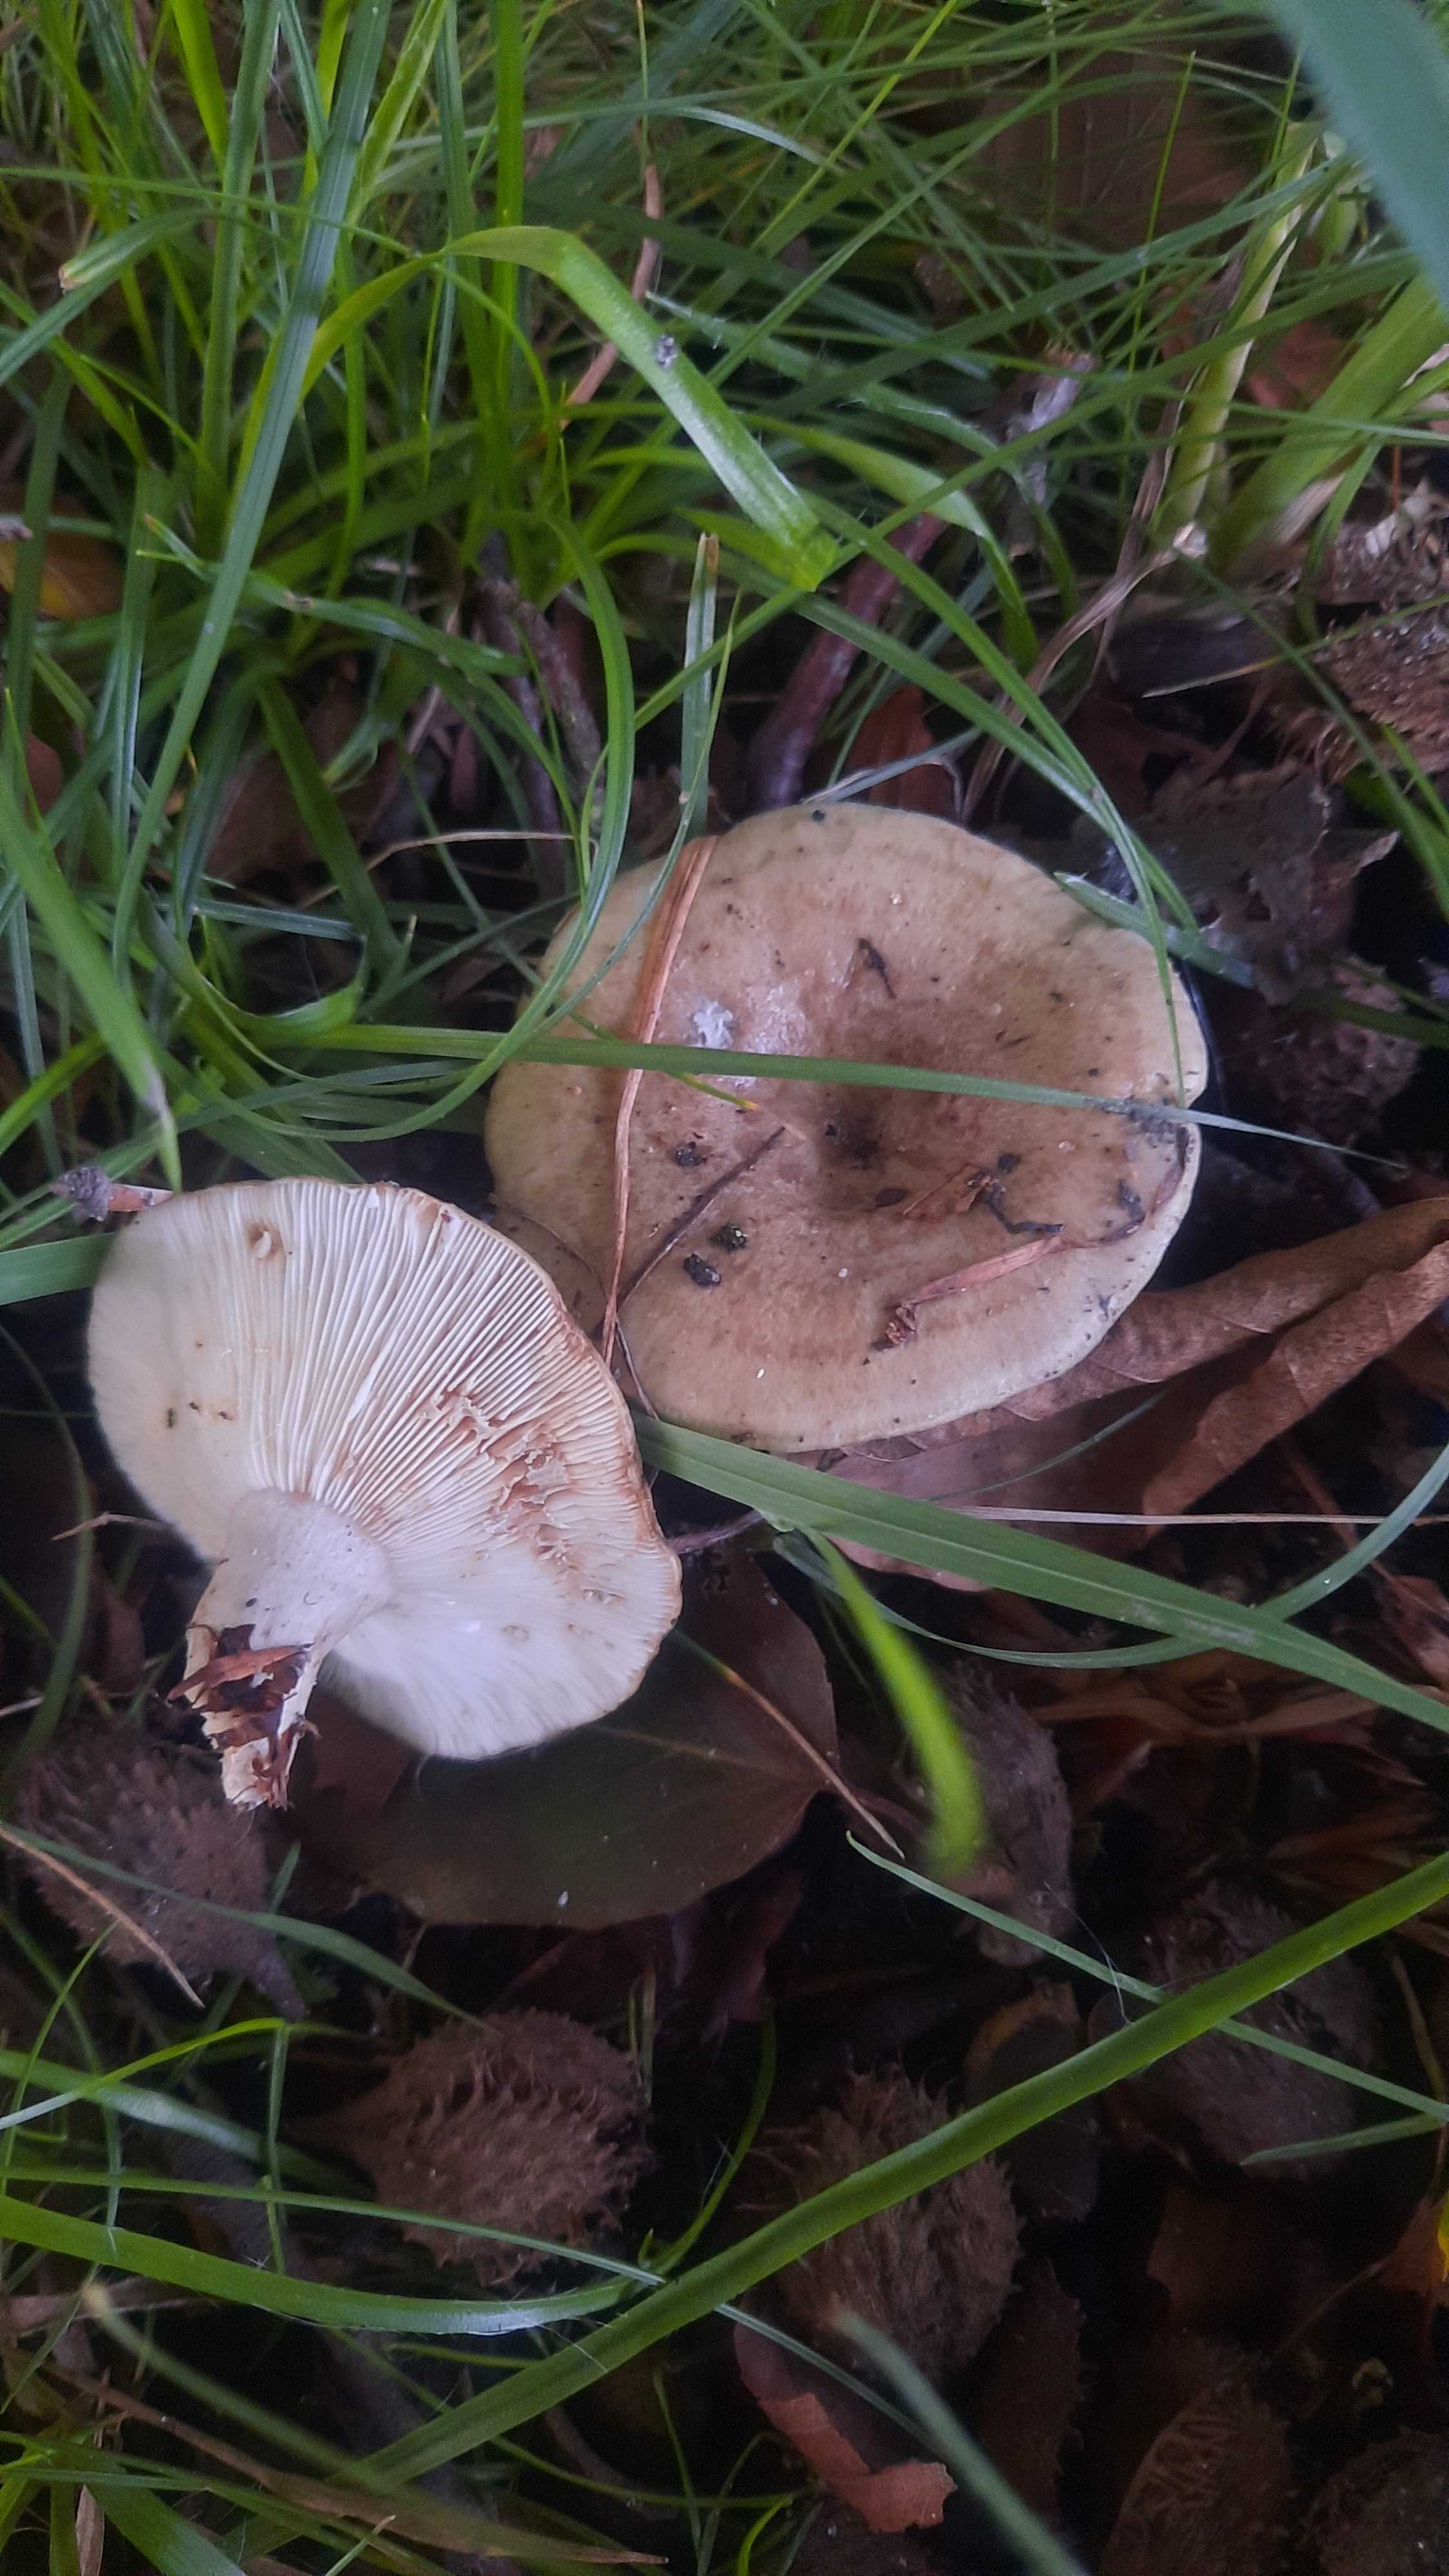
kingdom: Fungi
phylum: Basidiomycota
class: Agaricomycetes
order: Russulales
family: Russulaceae
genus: Lactarius
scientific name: Lactarius
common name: mælkehat
